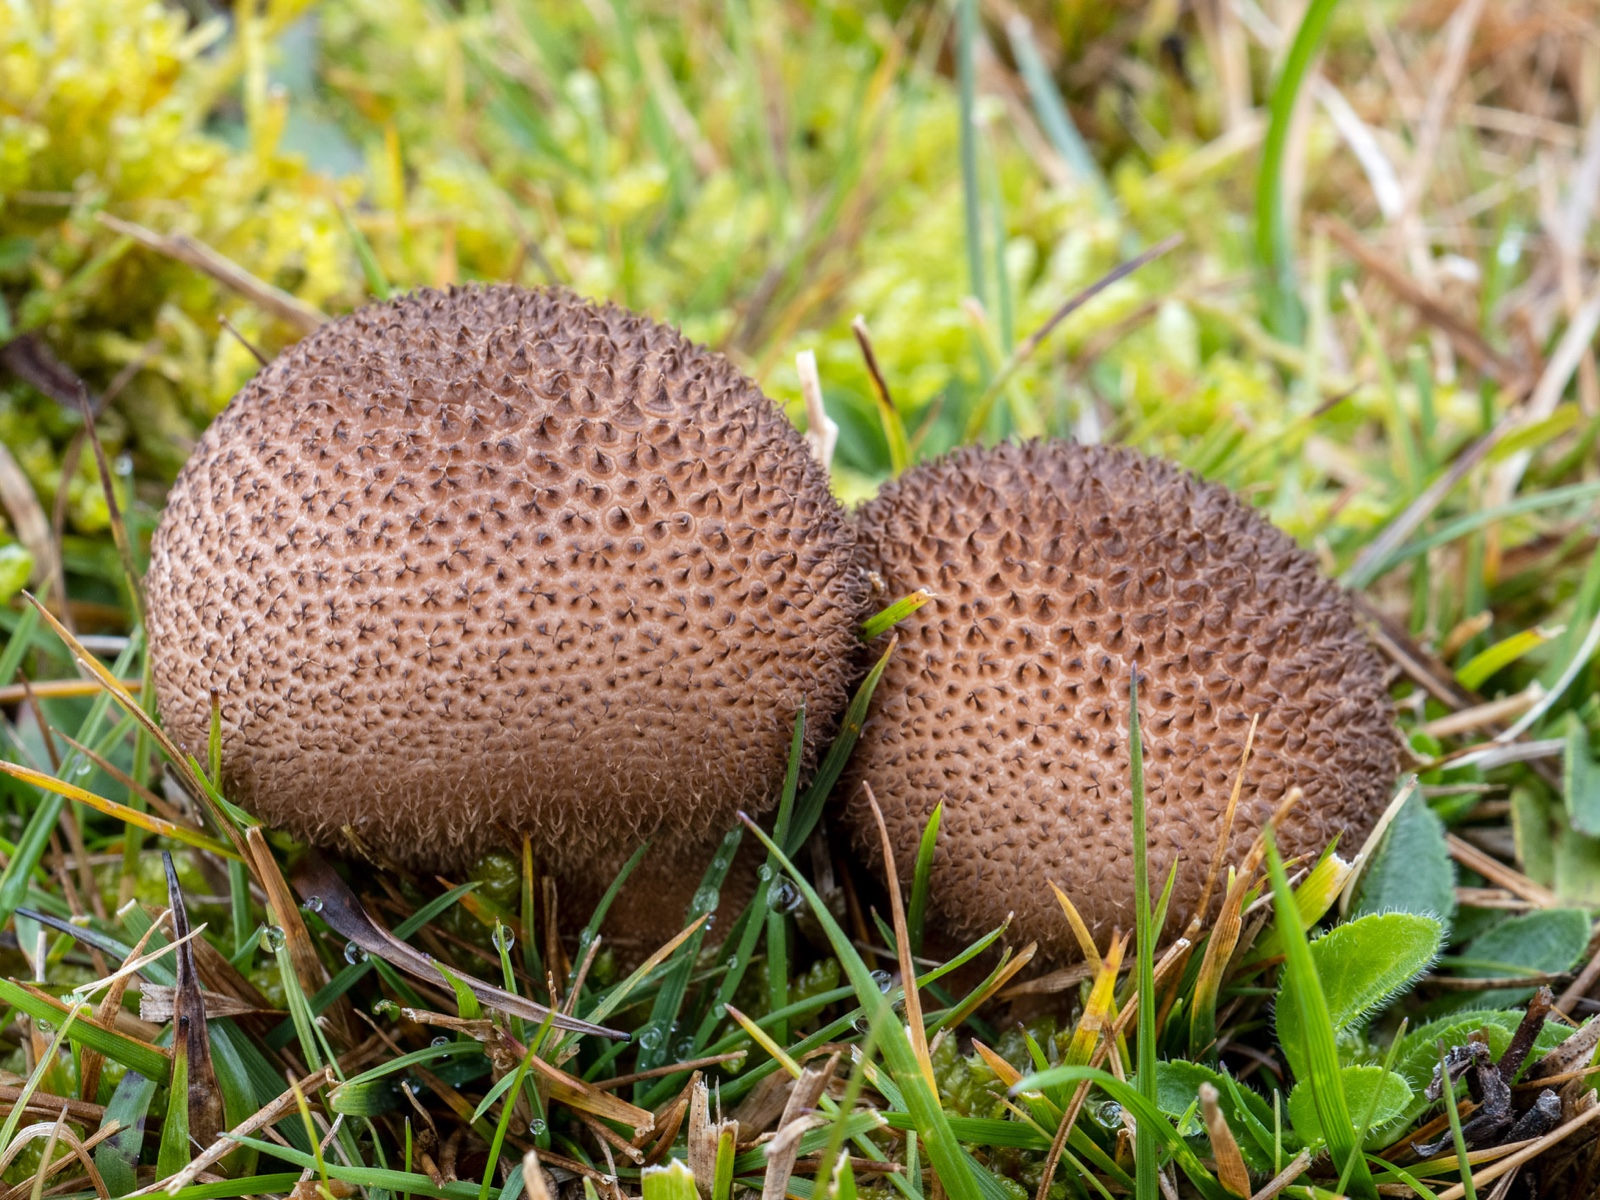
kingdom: Fungi
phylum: Basidiomycota
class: Agaricomycetes
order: Agaricales
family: Lycoperdaceae
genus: Lycoperdon
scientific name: Lycoperdon nigrescens
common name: sortagtig støvbold
